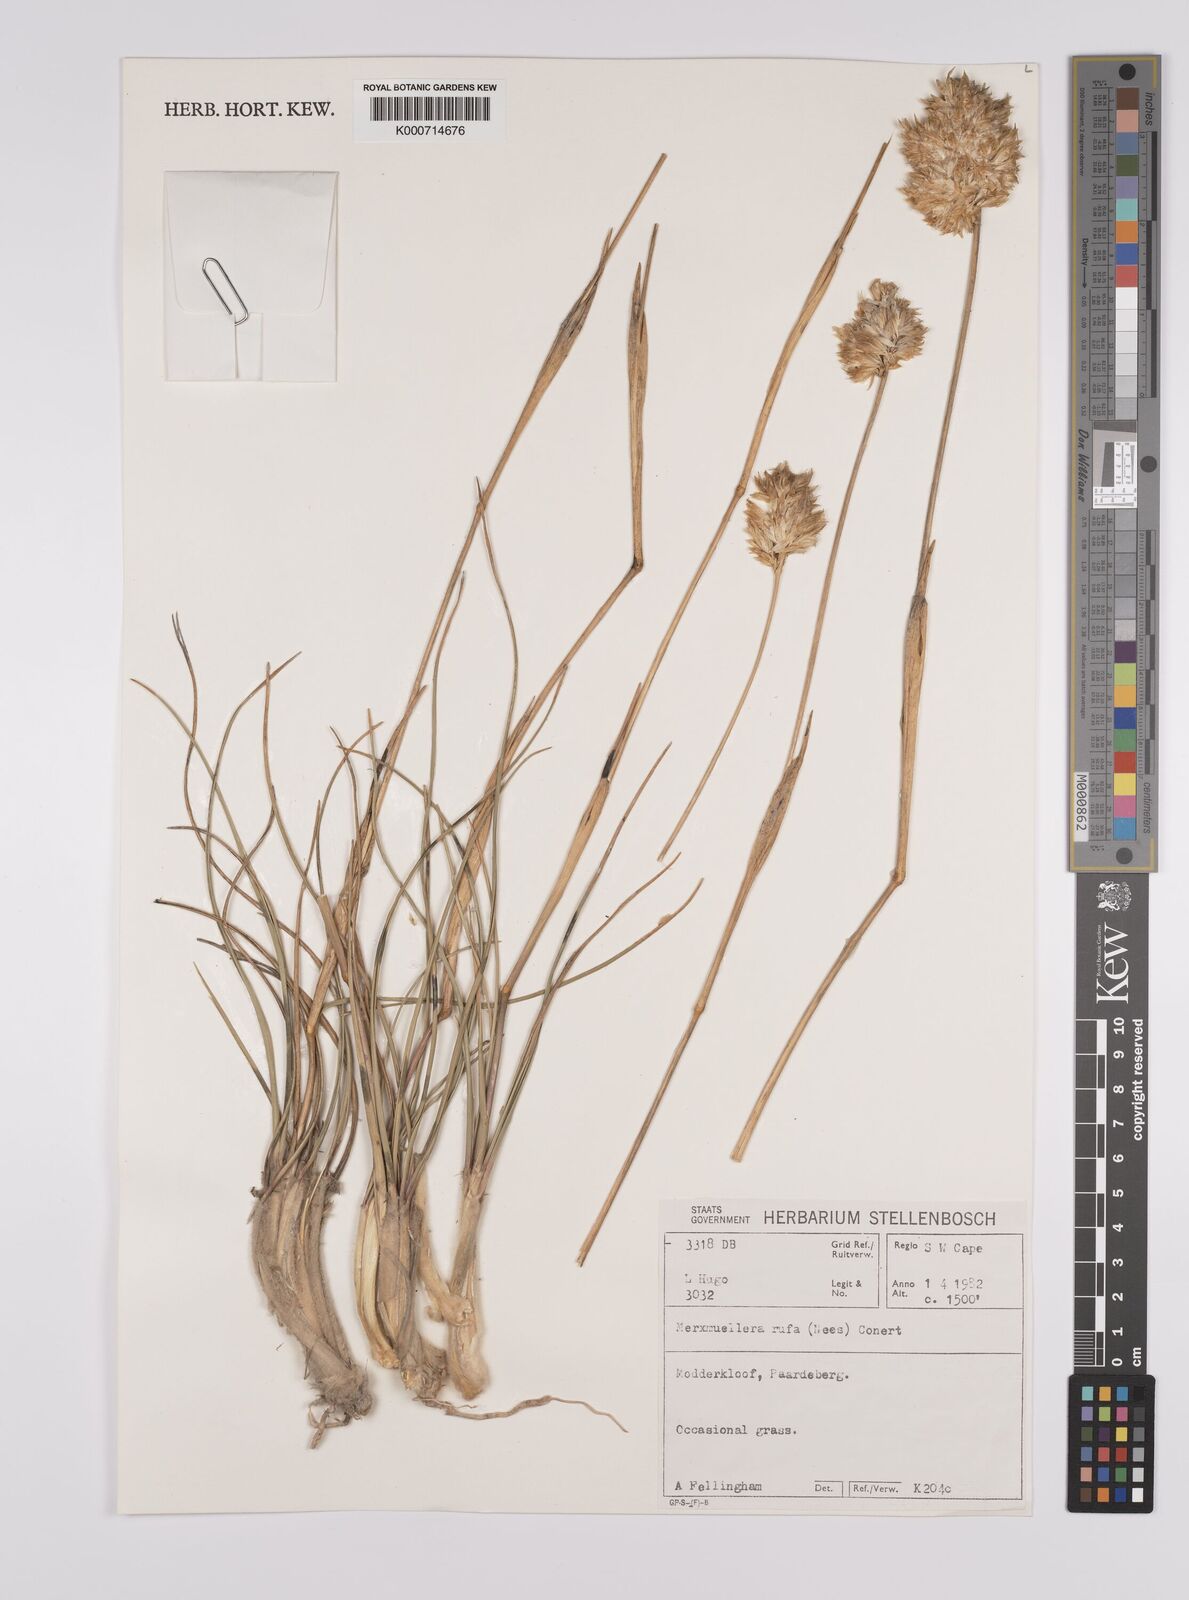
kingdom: Plantae
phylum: Tracheophyta
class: Liliopsida
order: Poales
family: Poaceae
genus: Rytidosperma
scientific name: Rytidosperma
